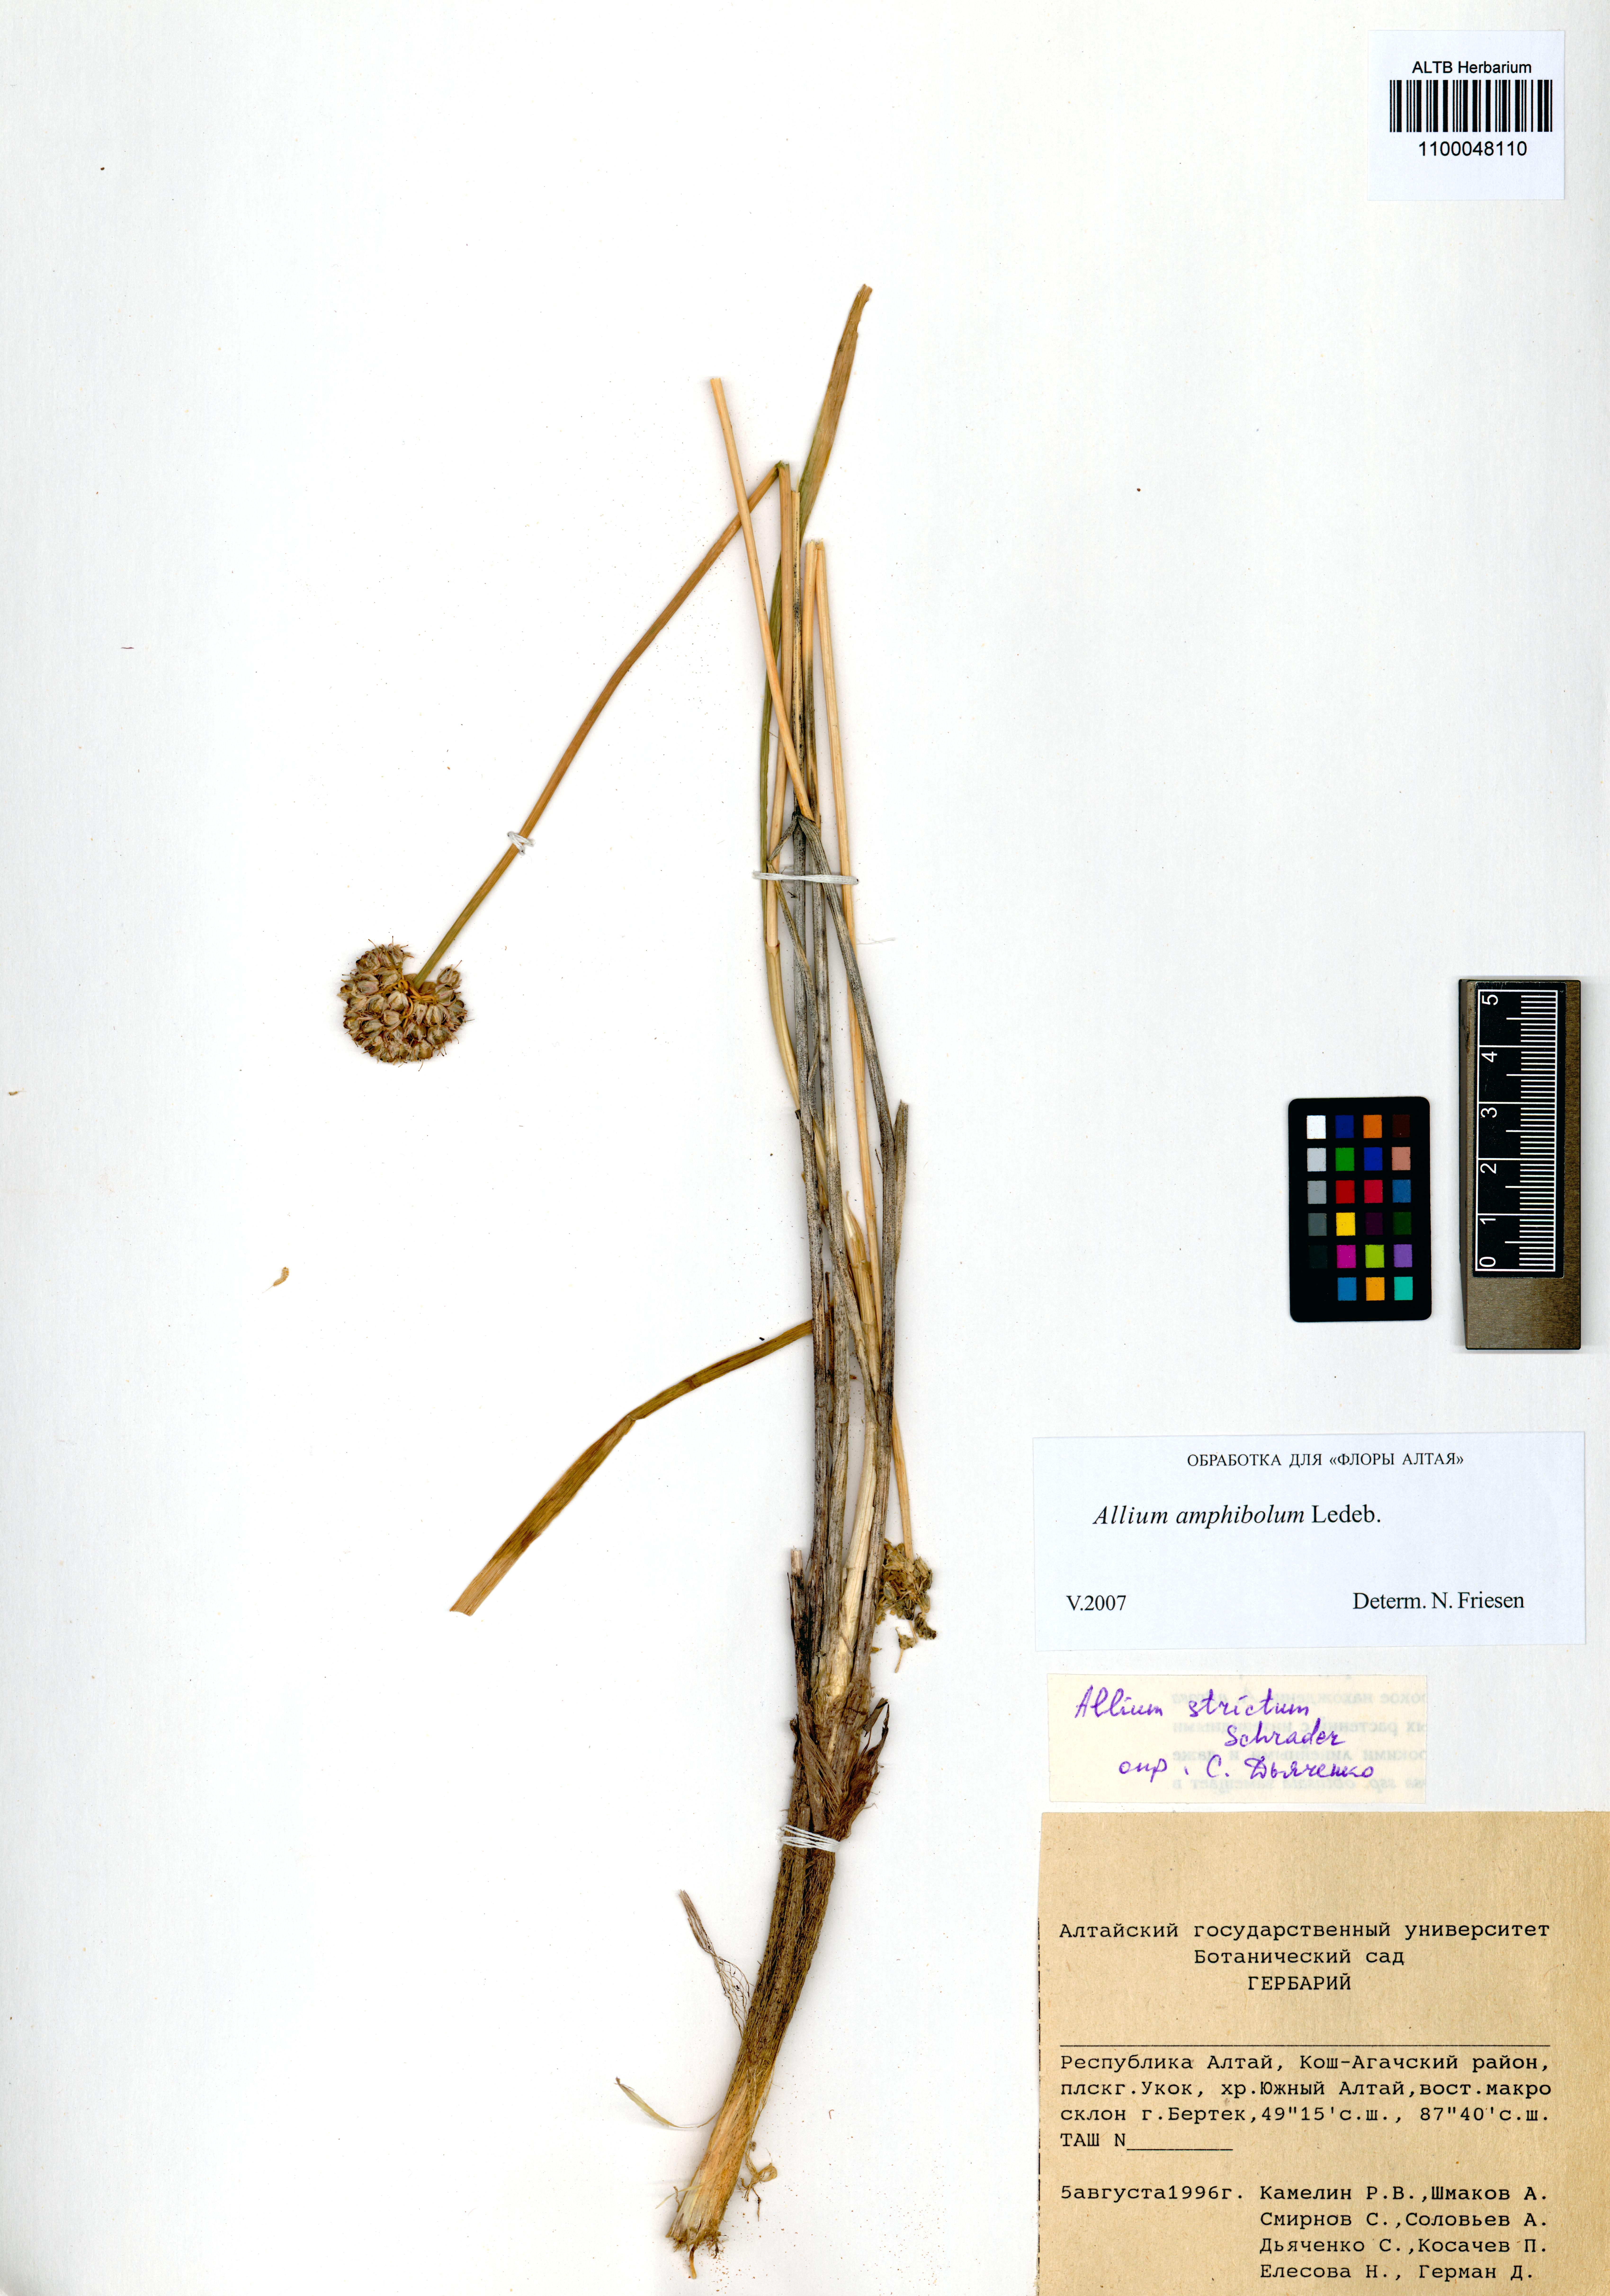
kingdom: Plantae
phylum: Tracheophyta
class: Liliopsida
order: Asparagales
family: Amaryllidaceae
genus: Allium
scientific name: Allium amphibolum
